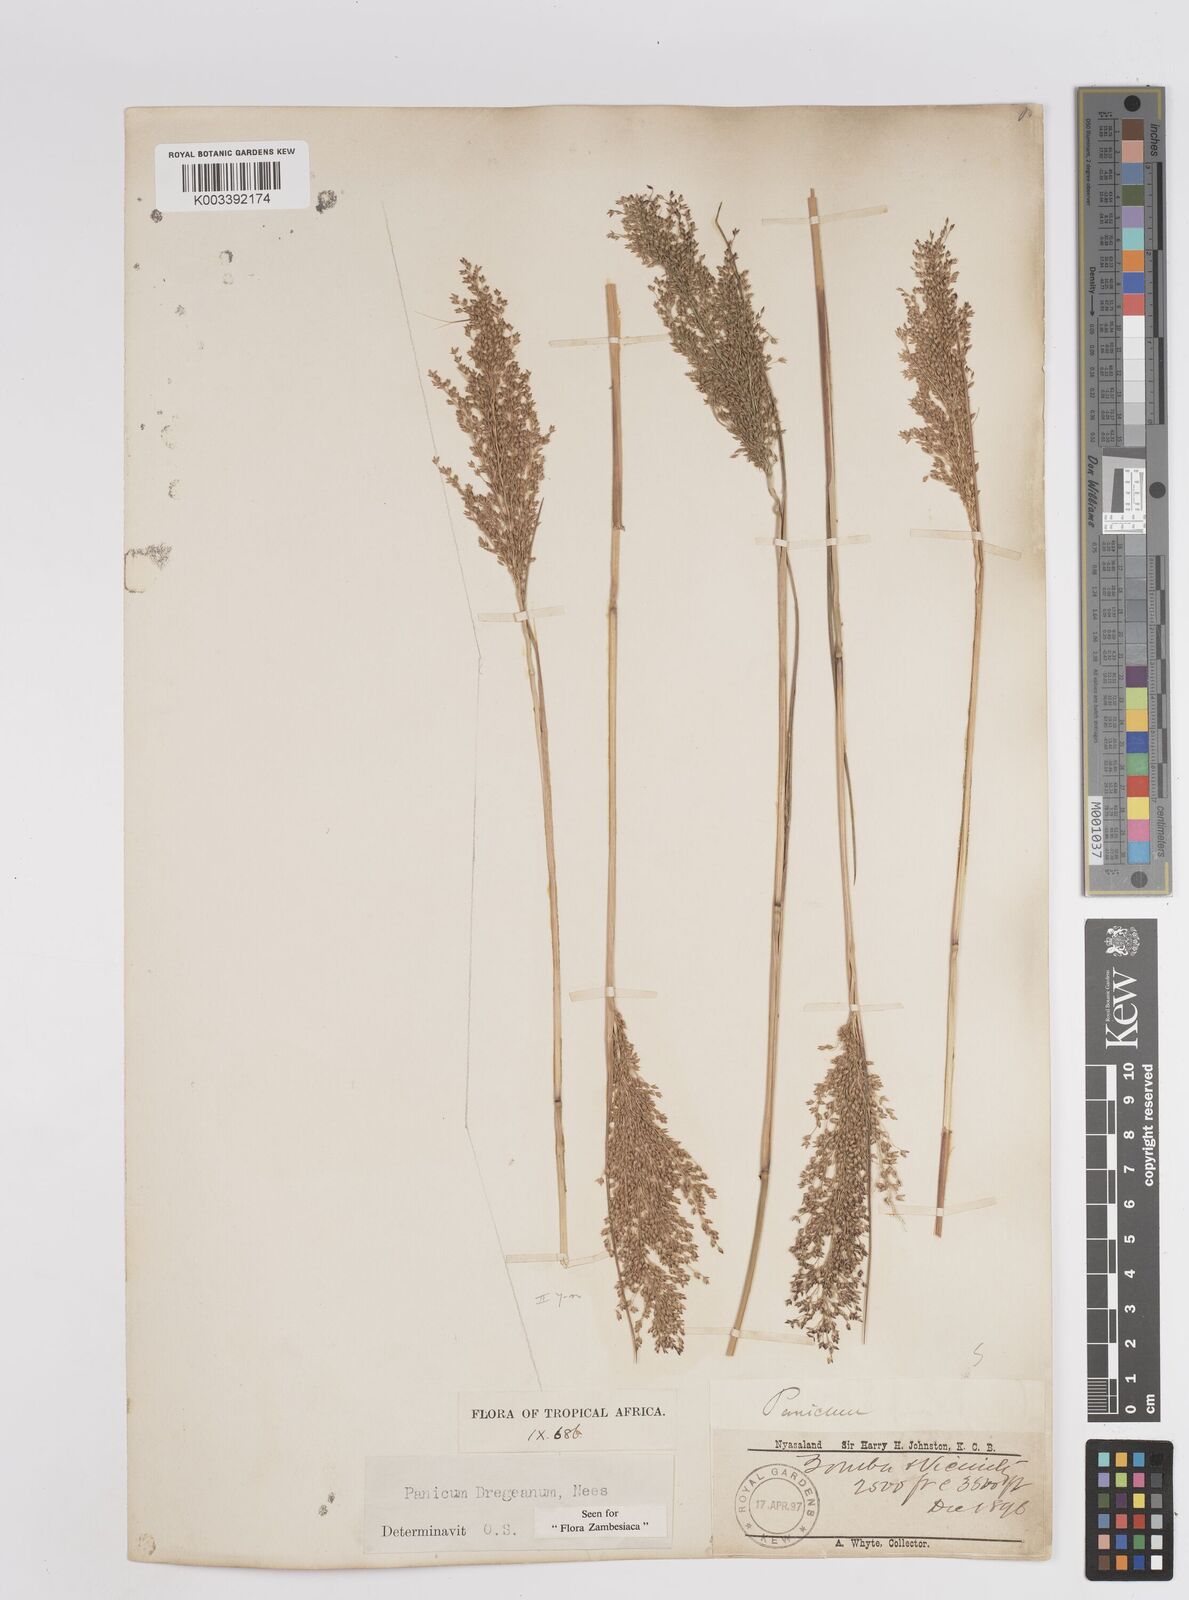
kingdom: Plantae
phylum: Tracheophyta
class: Liliopsida
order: Poales
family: Poaceae
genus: Panicum
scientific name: Panicum dregeanum
